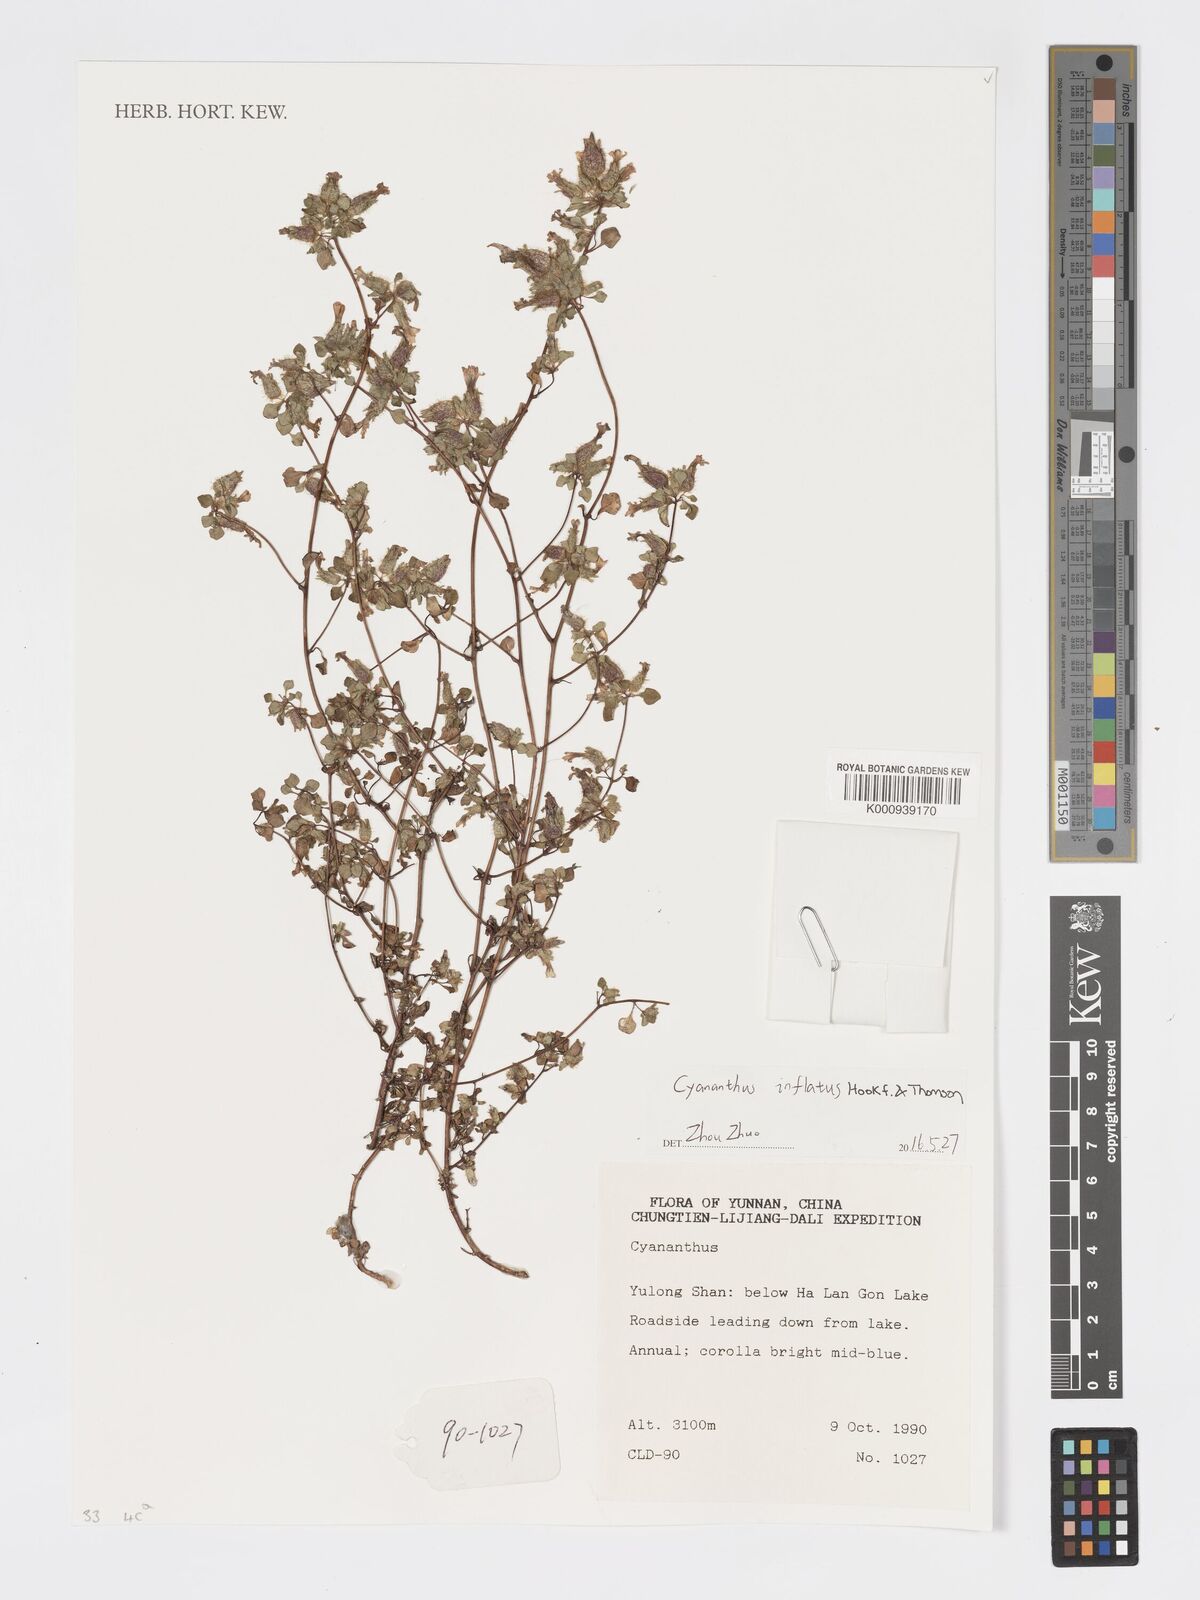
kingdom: Plantae
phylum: Tracheophyta
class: Magnoliopsida
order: Asterales
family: Campanulaceae
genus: Cyananthus
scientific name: Cyananthus inflatus
